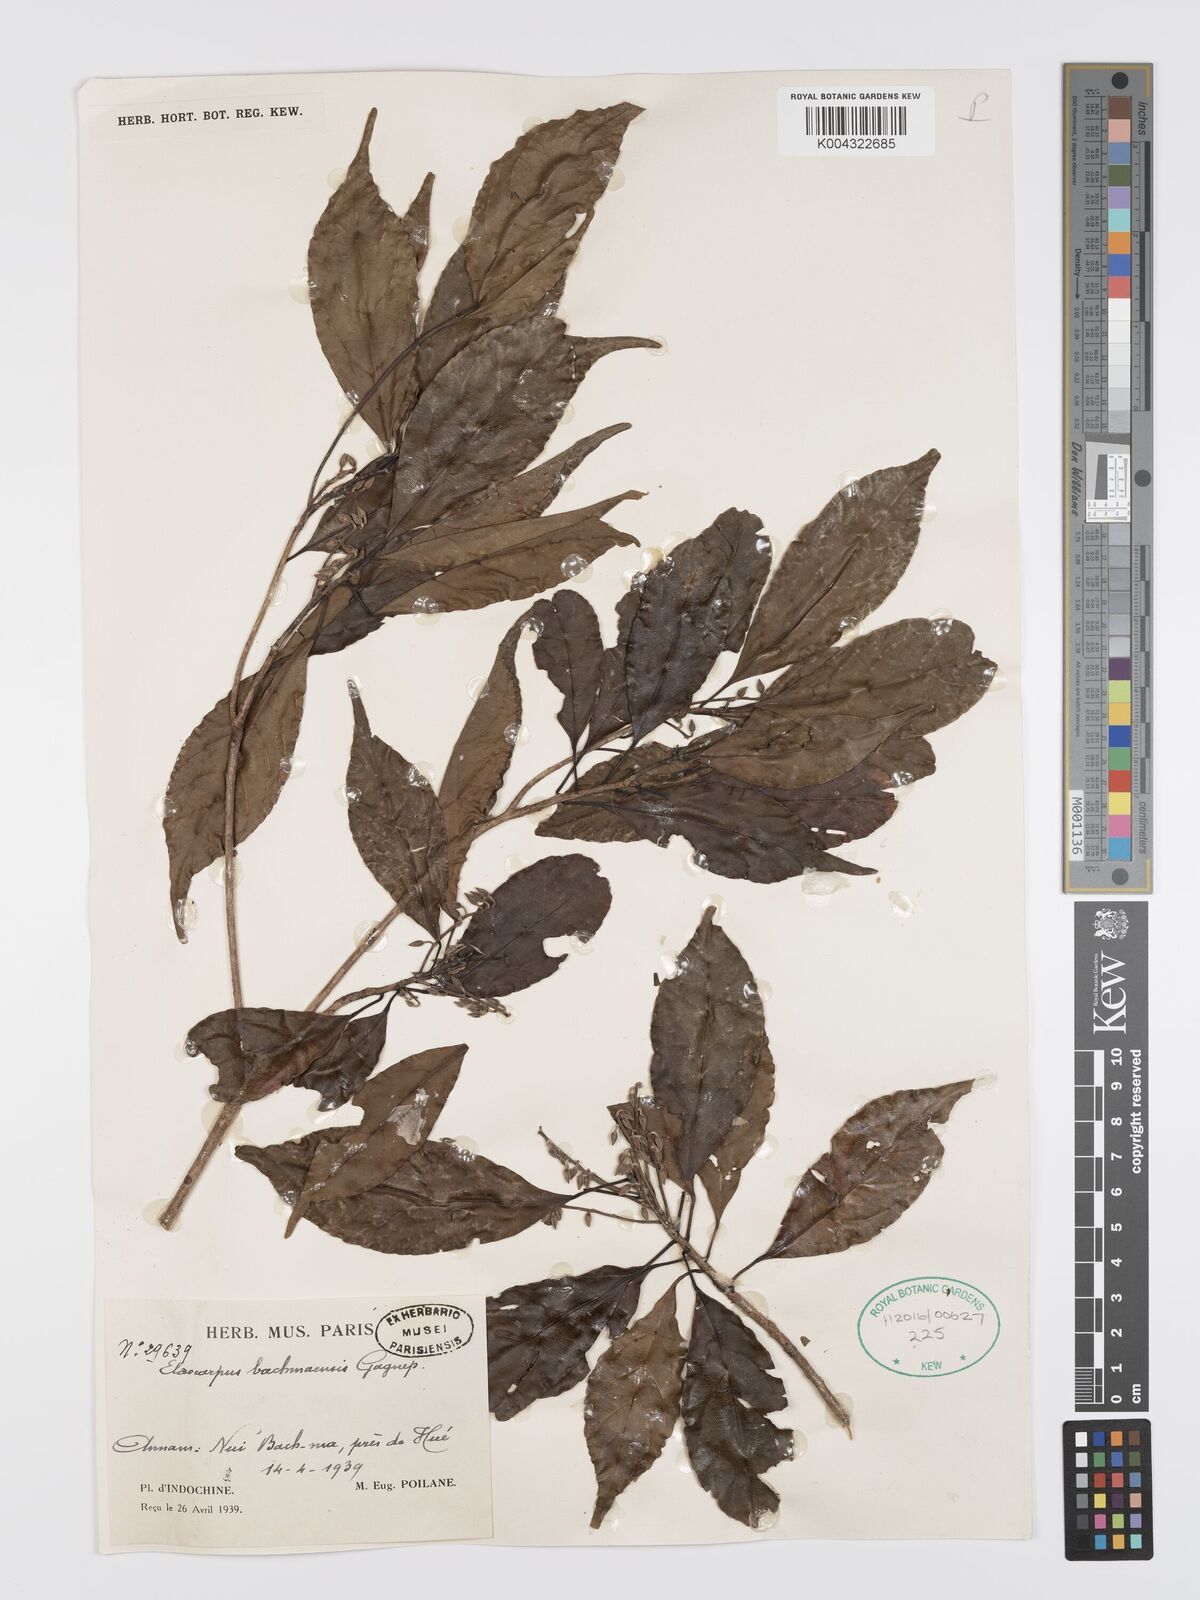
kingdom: Plantae
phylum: Tracheophyta
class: Magnoliopsida
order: Oxalidales
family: Elaeocarpaceae
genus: Elaeocarpus
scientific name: Elaeocarpus bachmaensis
